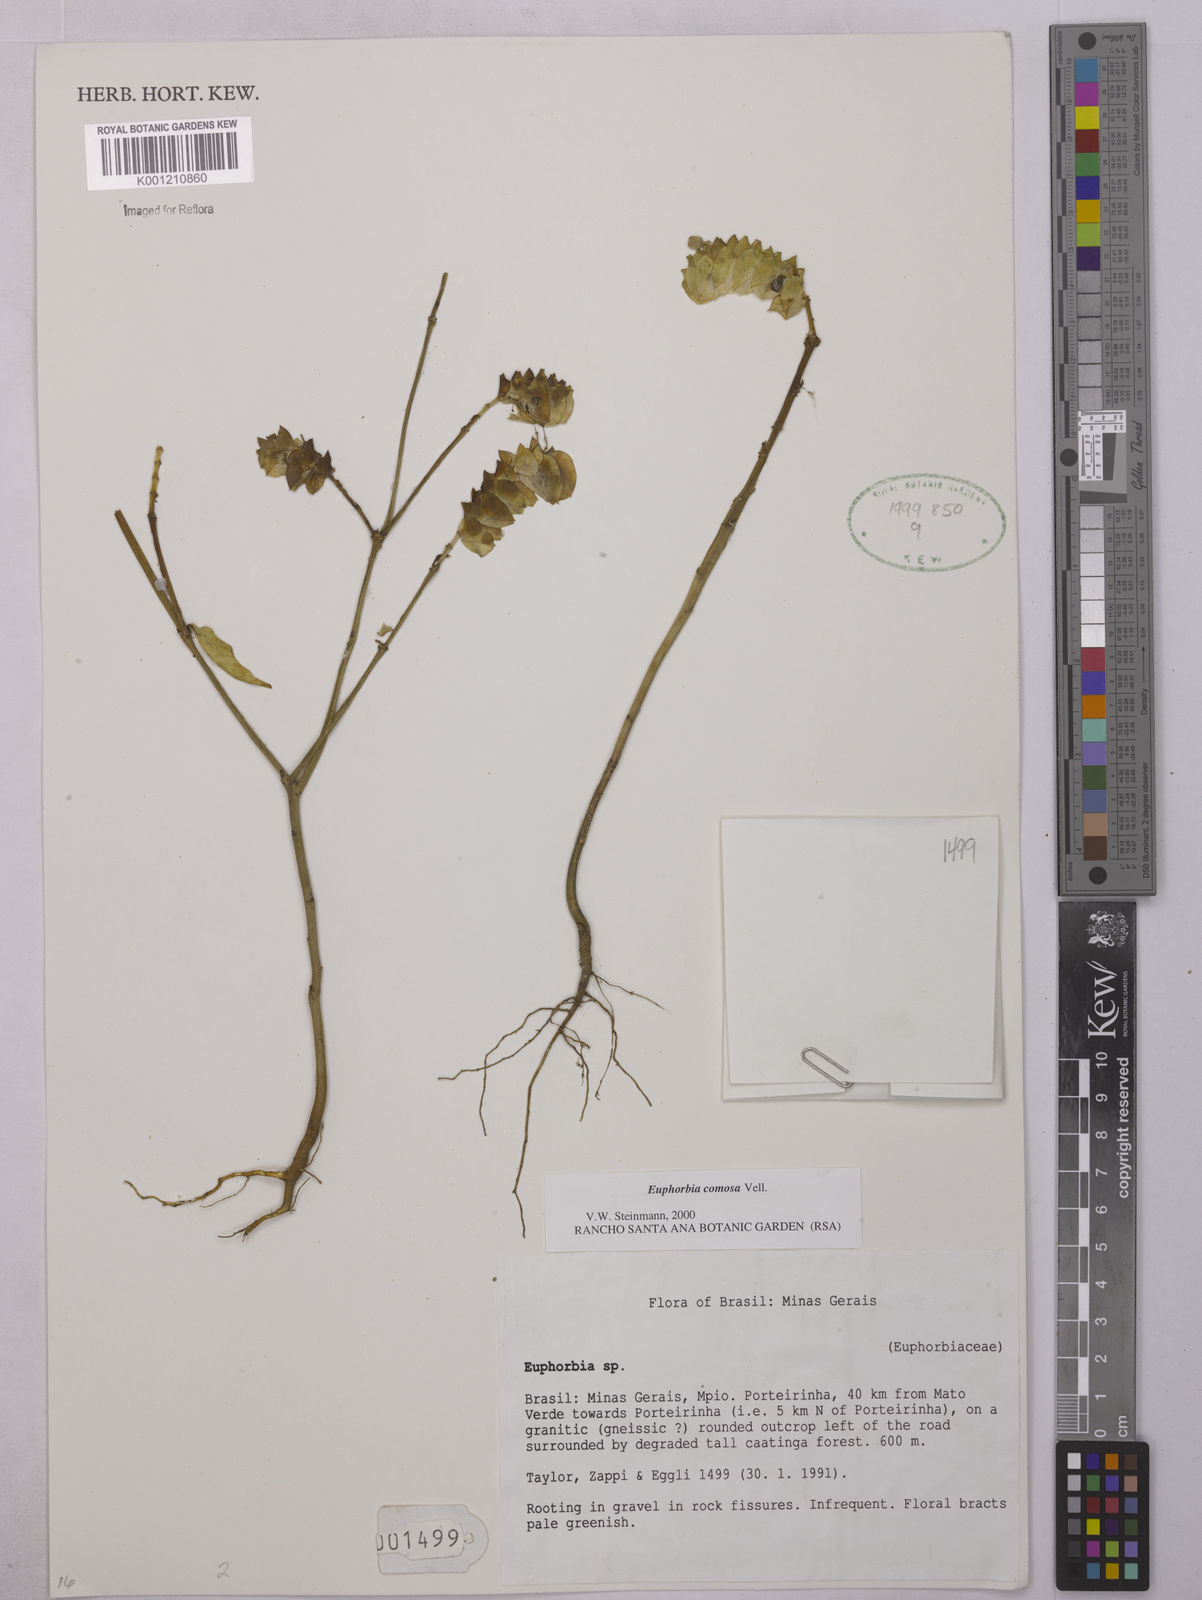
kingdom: Plantae
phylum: Tracheophyta
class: Magnoliopsida
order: Malpighiales
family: Euphorbiaceae
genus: Euphorbia
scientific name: Euphorbia comosa
